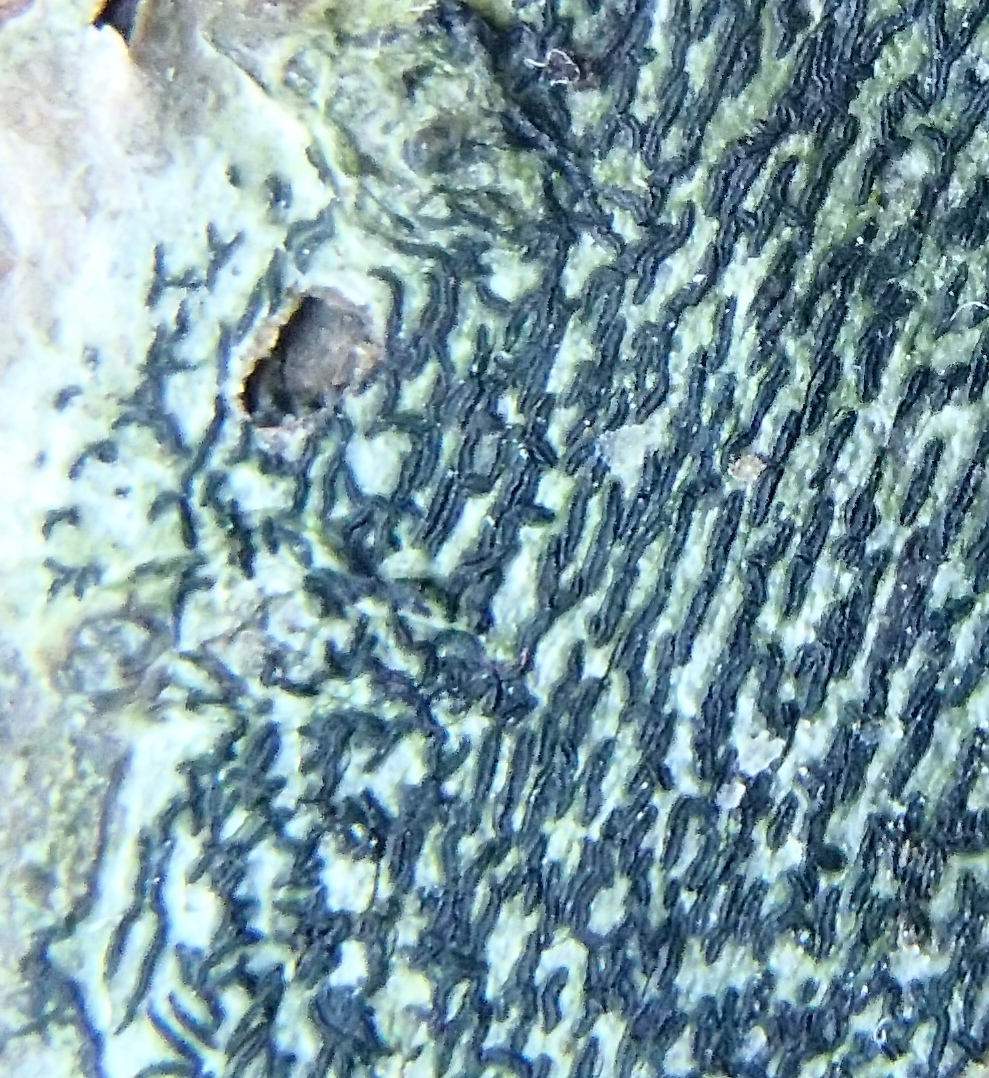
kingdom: Fungi
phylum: Ascomycota
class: Arthoniomycetes
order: Arthoniales
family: Arthoniaceae
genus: Arthonia
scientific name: Arthonia atra
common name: sort bogstavlav
